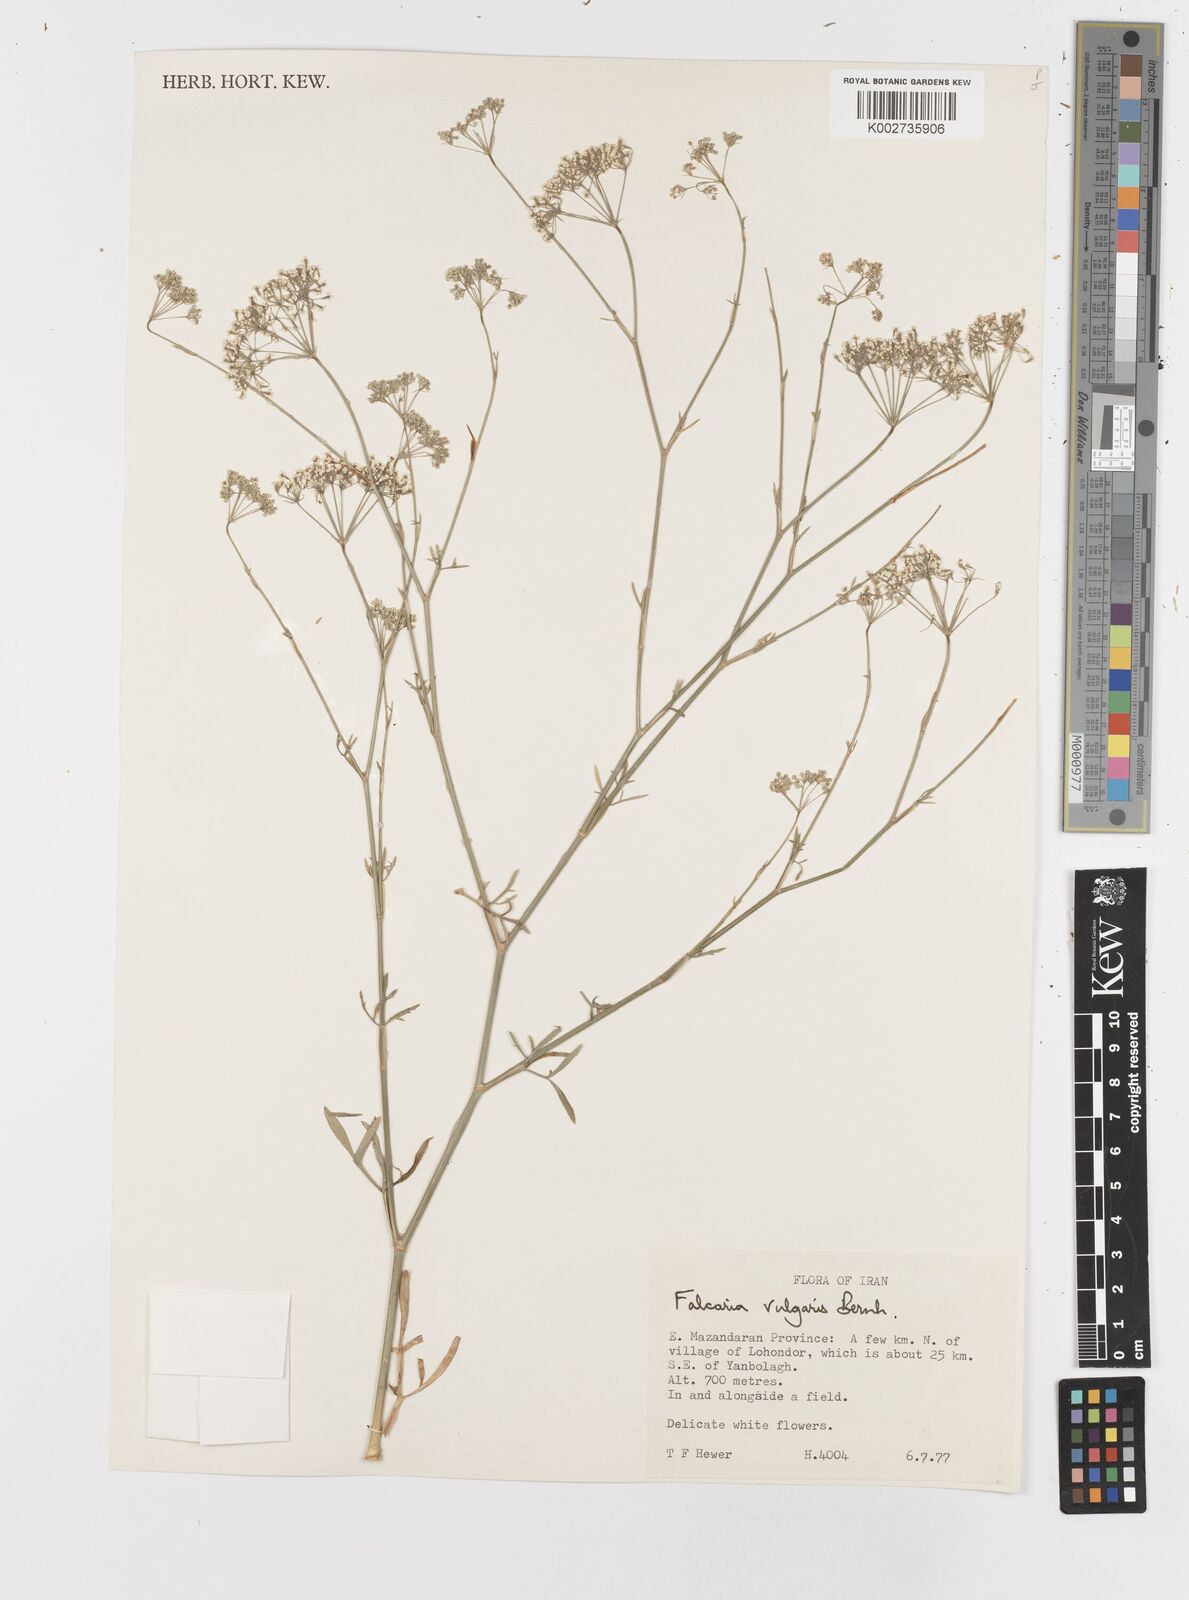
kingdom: Plantae
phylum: Tracheophyta
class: Magnoliopsida
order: Apiales
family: Apiaceae
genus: Falcaria
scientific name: Falcaria vulgaris
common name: Longleaf
